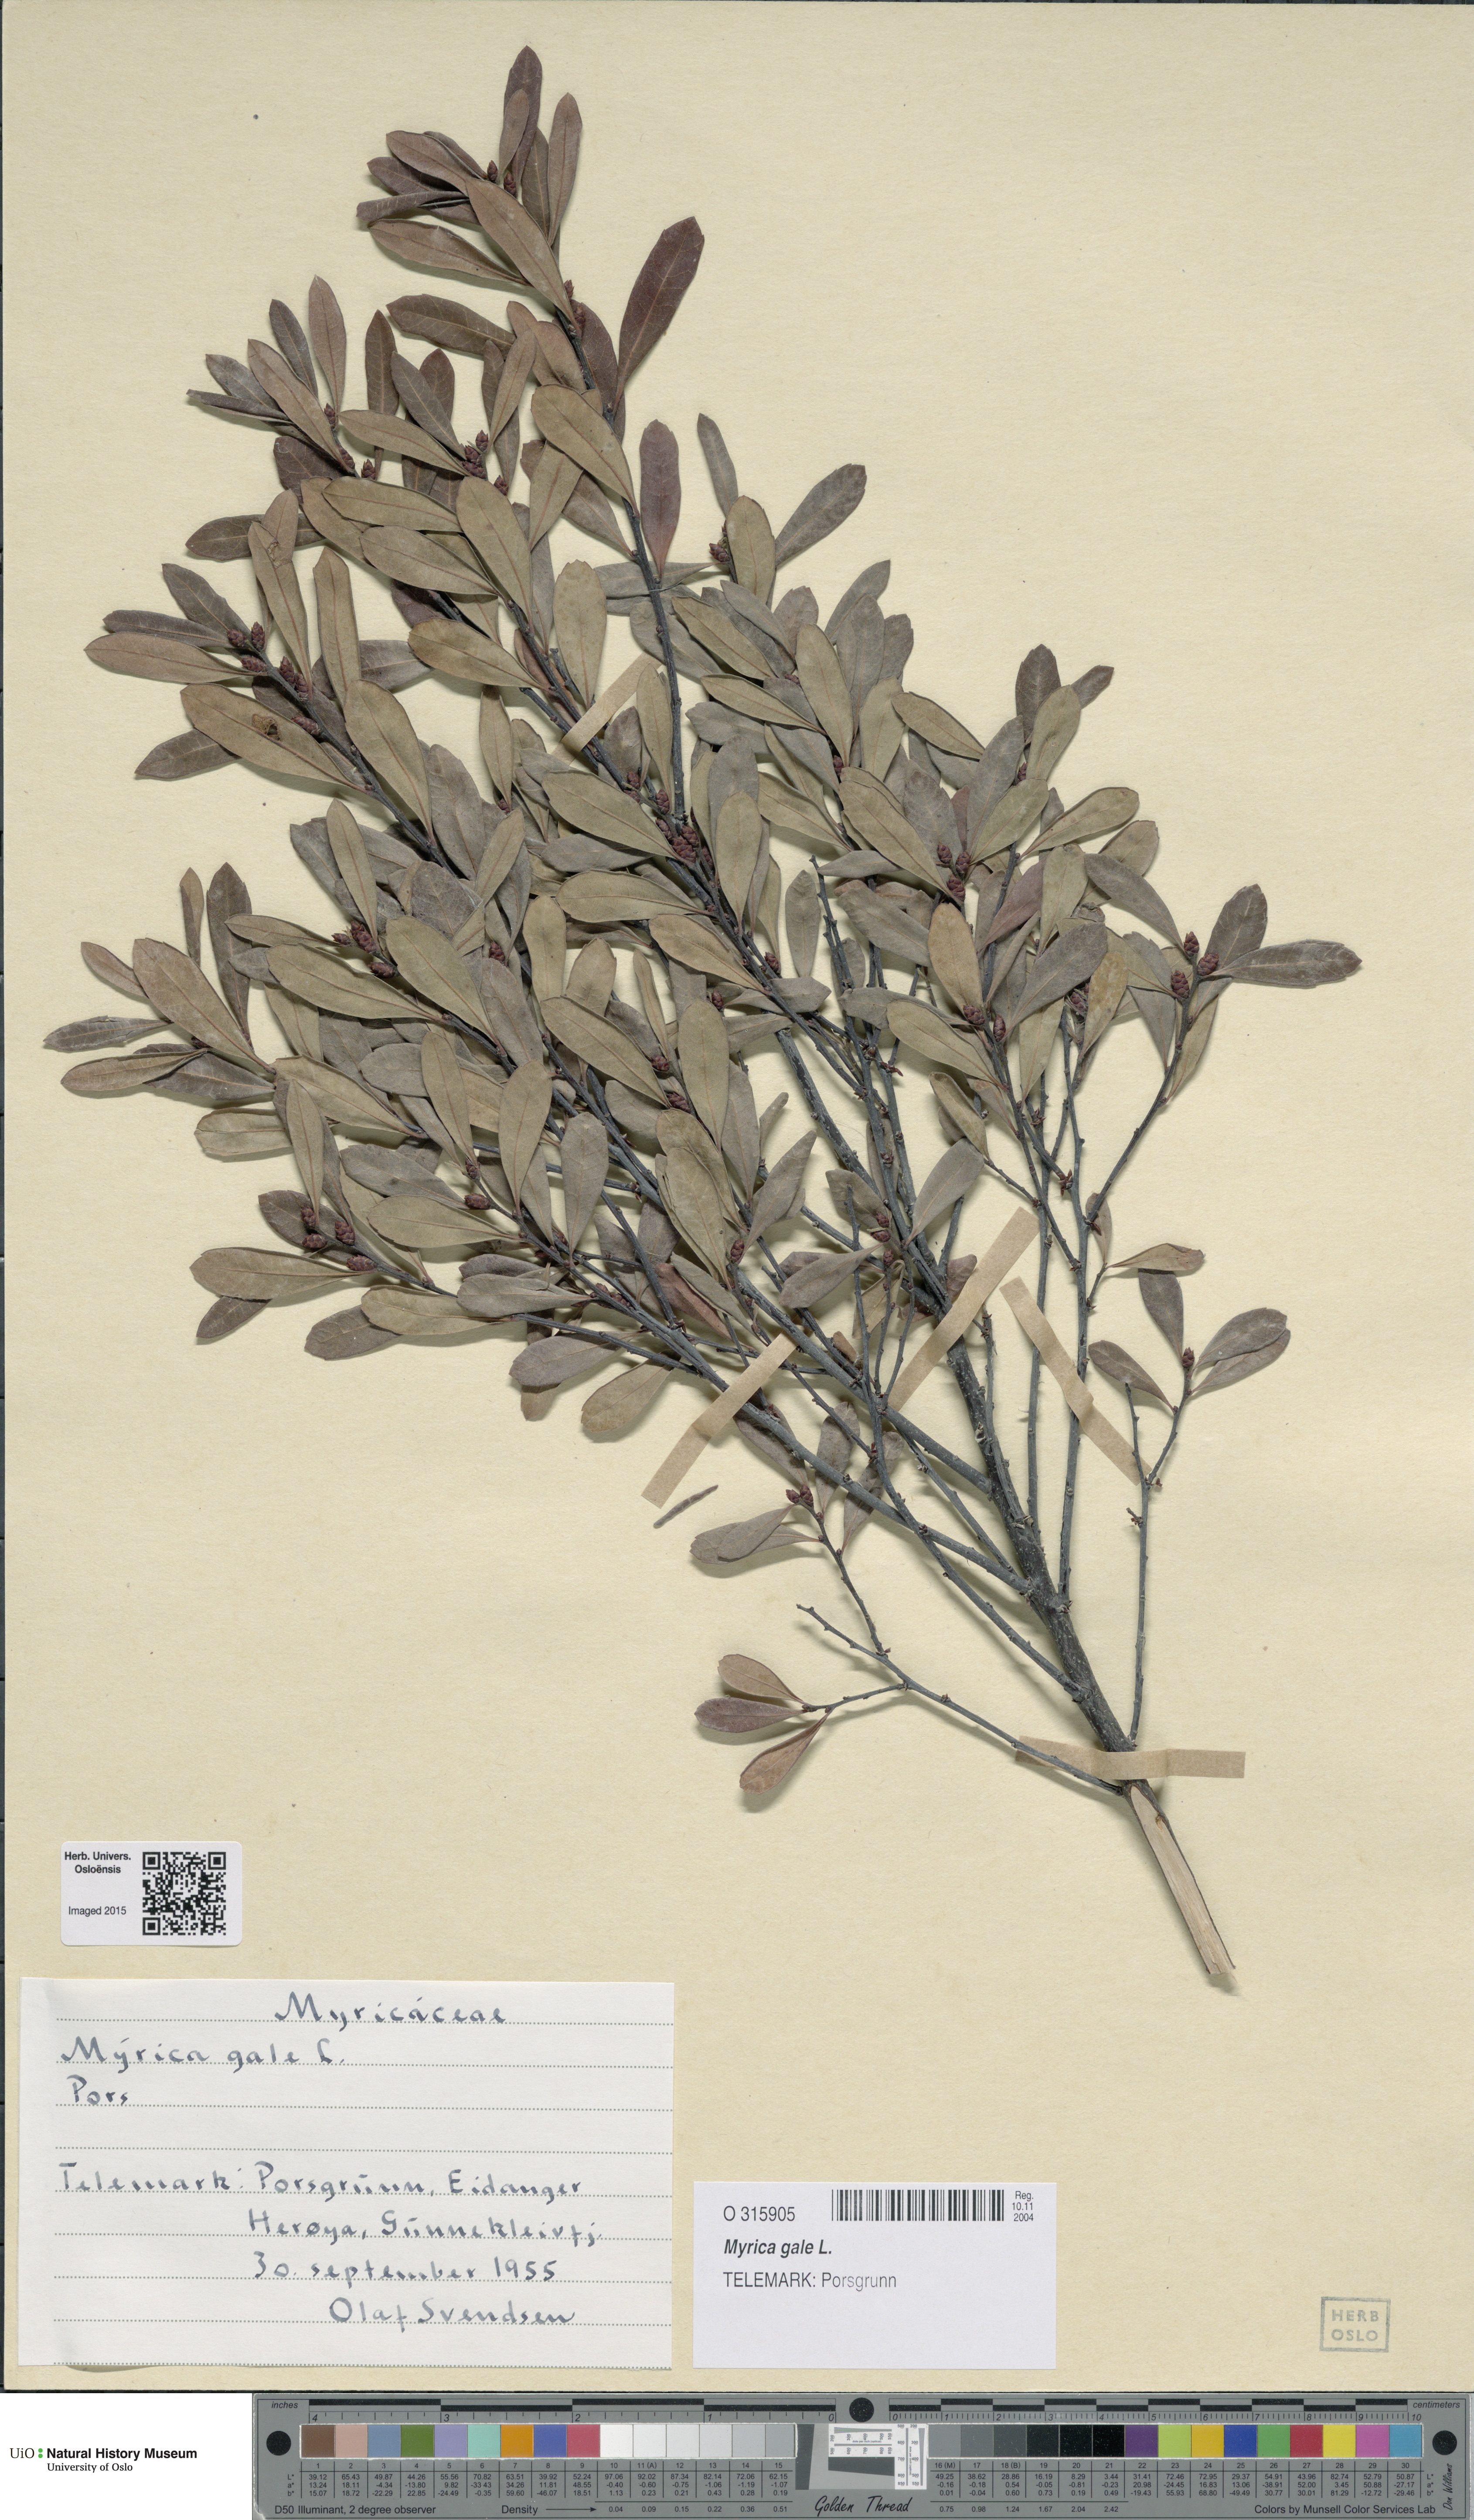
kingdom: Plantae
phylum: Tracheophyta
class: Magnoliopsida
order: Fagales
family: Myricaceae
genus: Myrica
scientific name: Myrica gale
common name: Sweet gale
